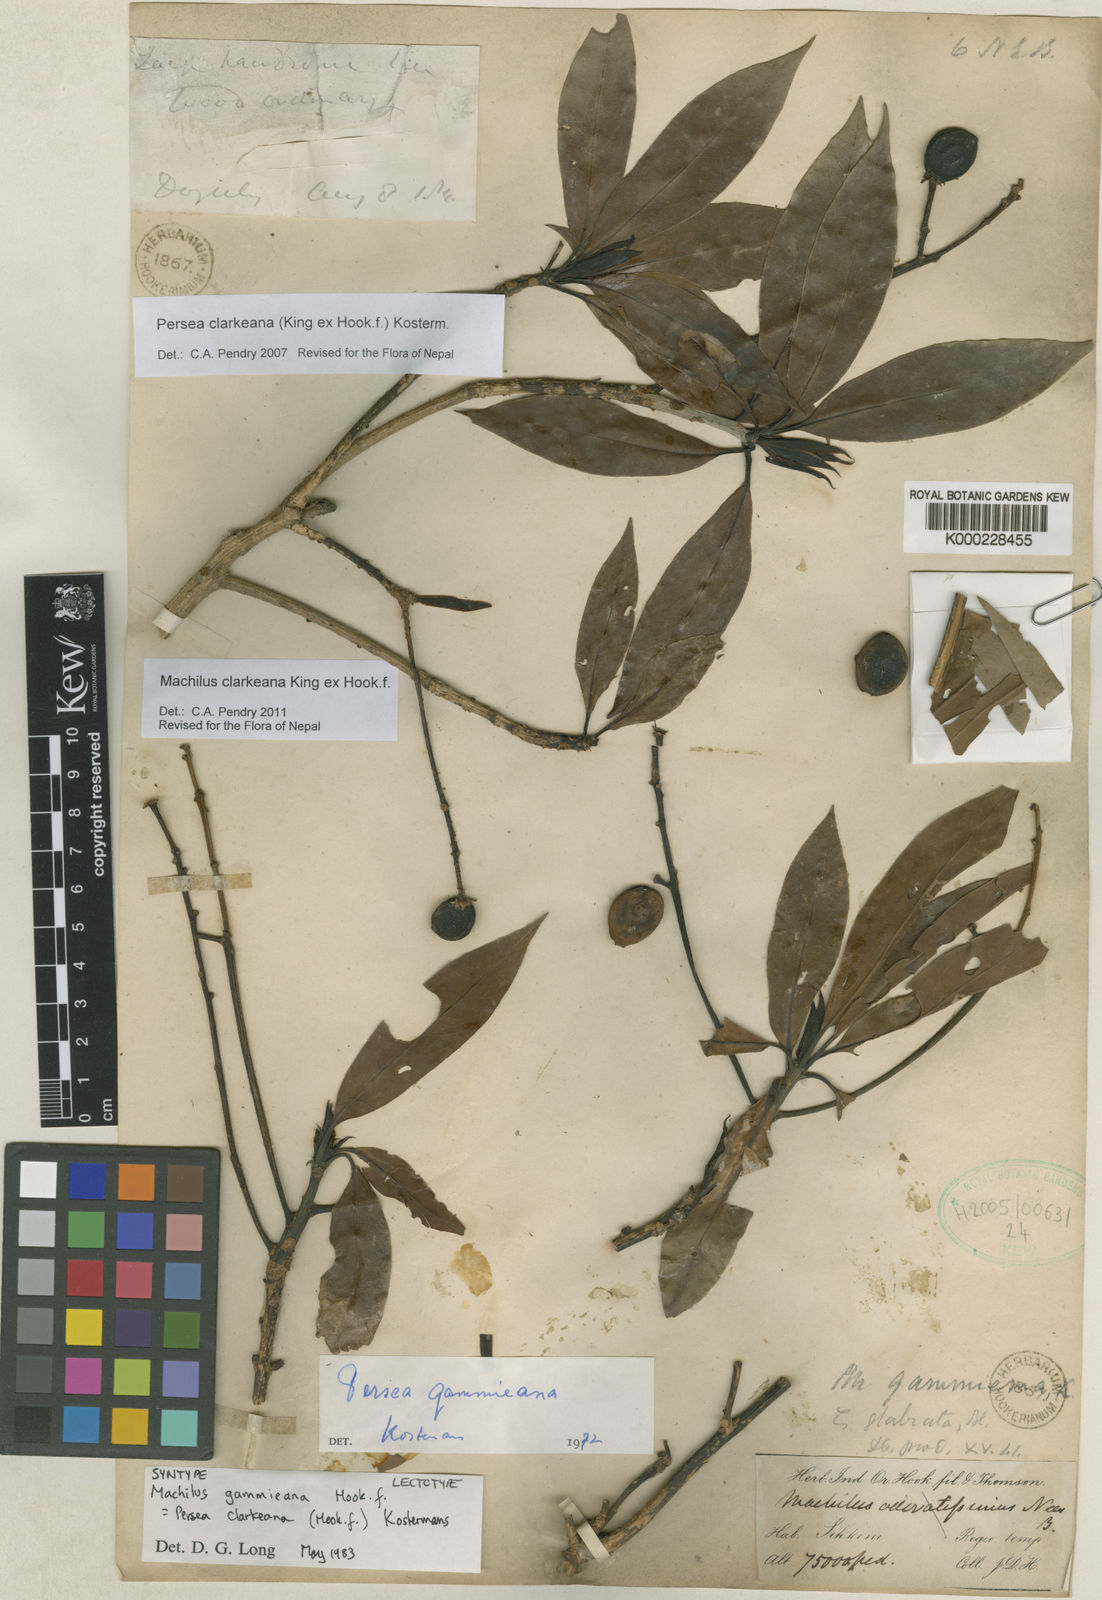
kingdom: Plantae
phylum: Tracheophyta
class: Magnoliopsida
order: Laurales
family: Lauraceae
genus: Machilus
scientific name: Machilus clarkeana
